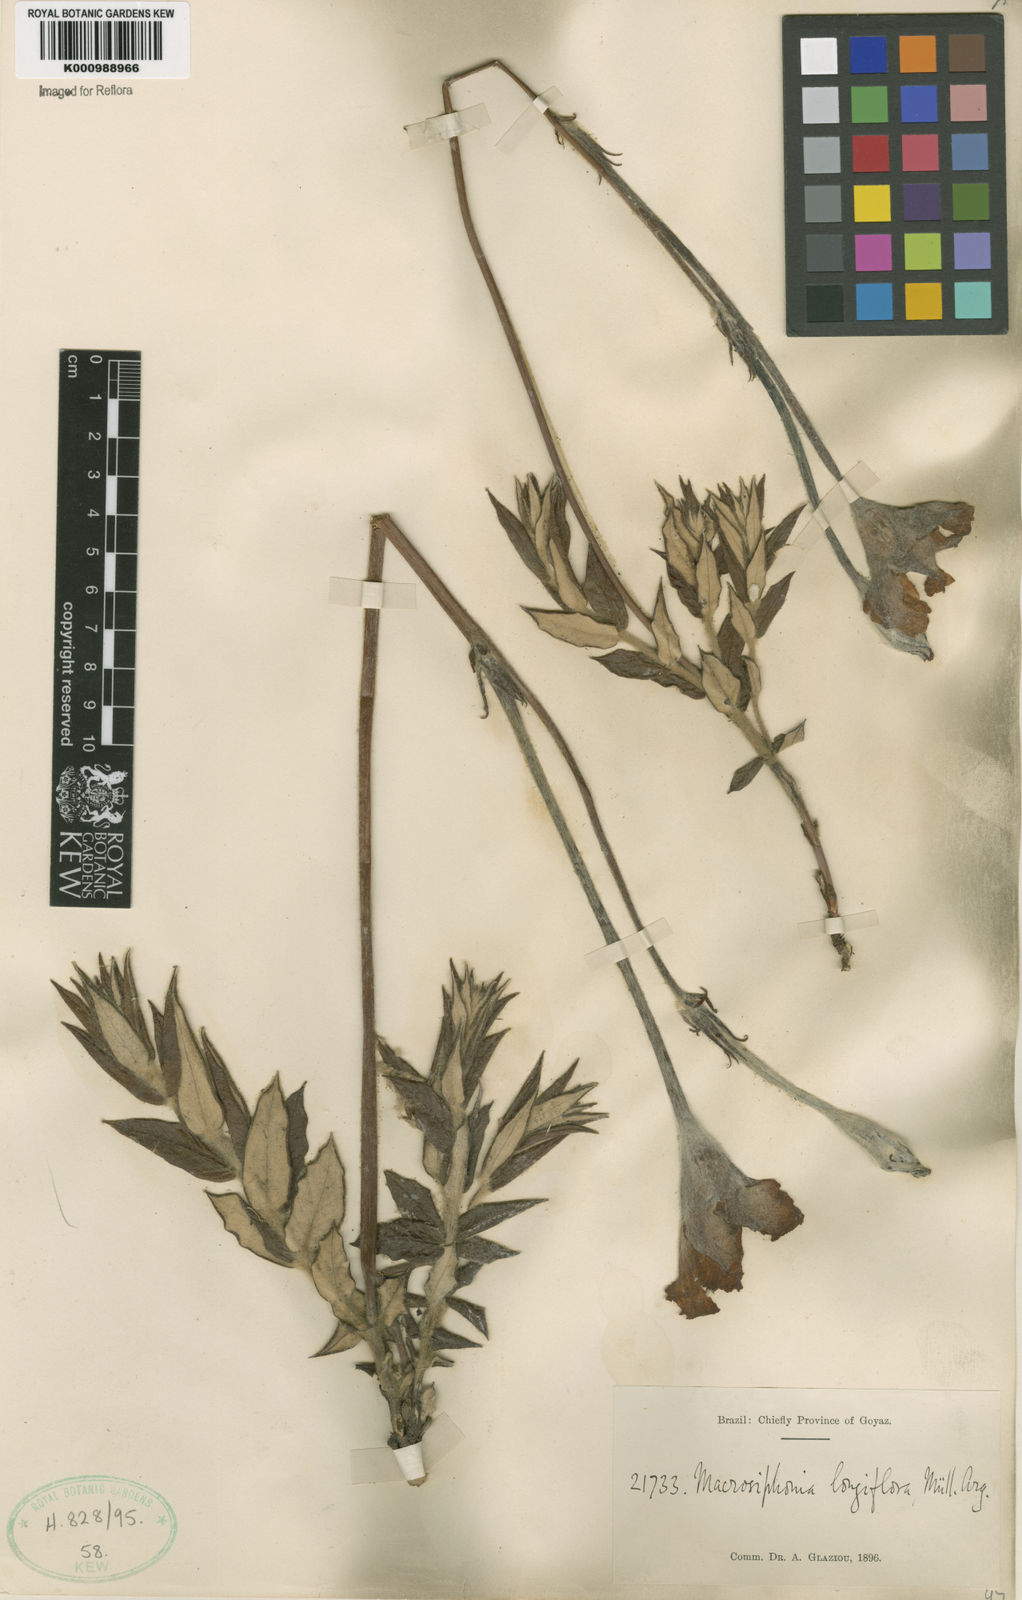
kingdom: Plantae
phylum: Tracheophyta
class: Magnoliopsida
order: Gentianales
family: Apocynaceae
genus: Mandevilla
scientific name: Mandevilla longiflora
